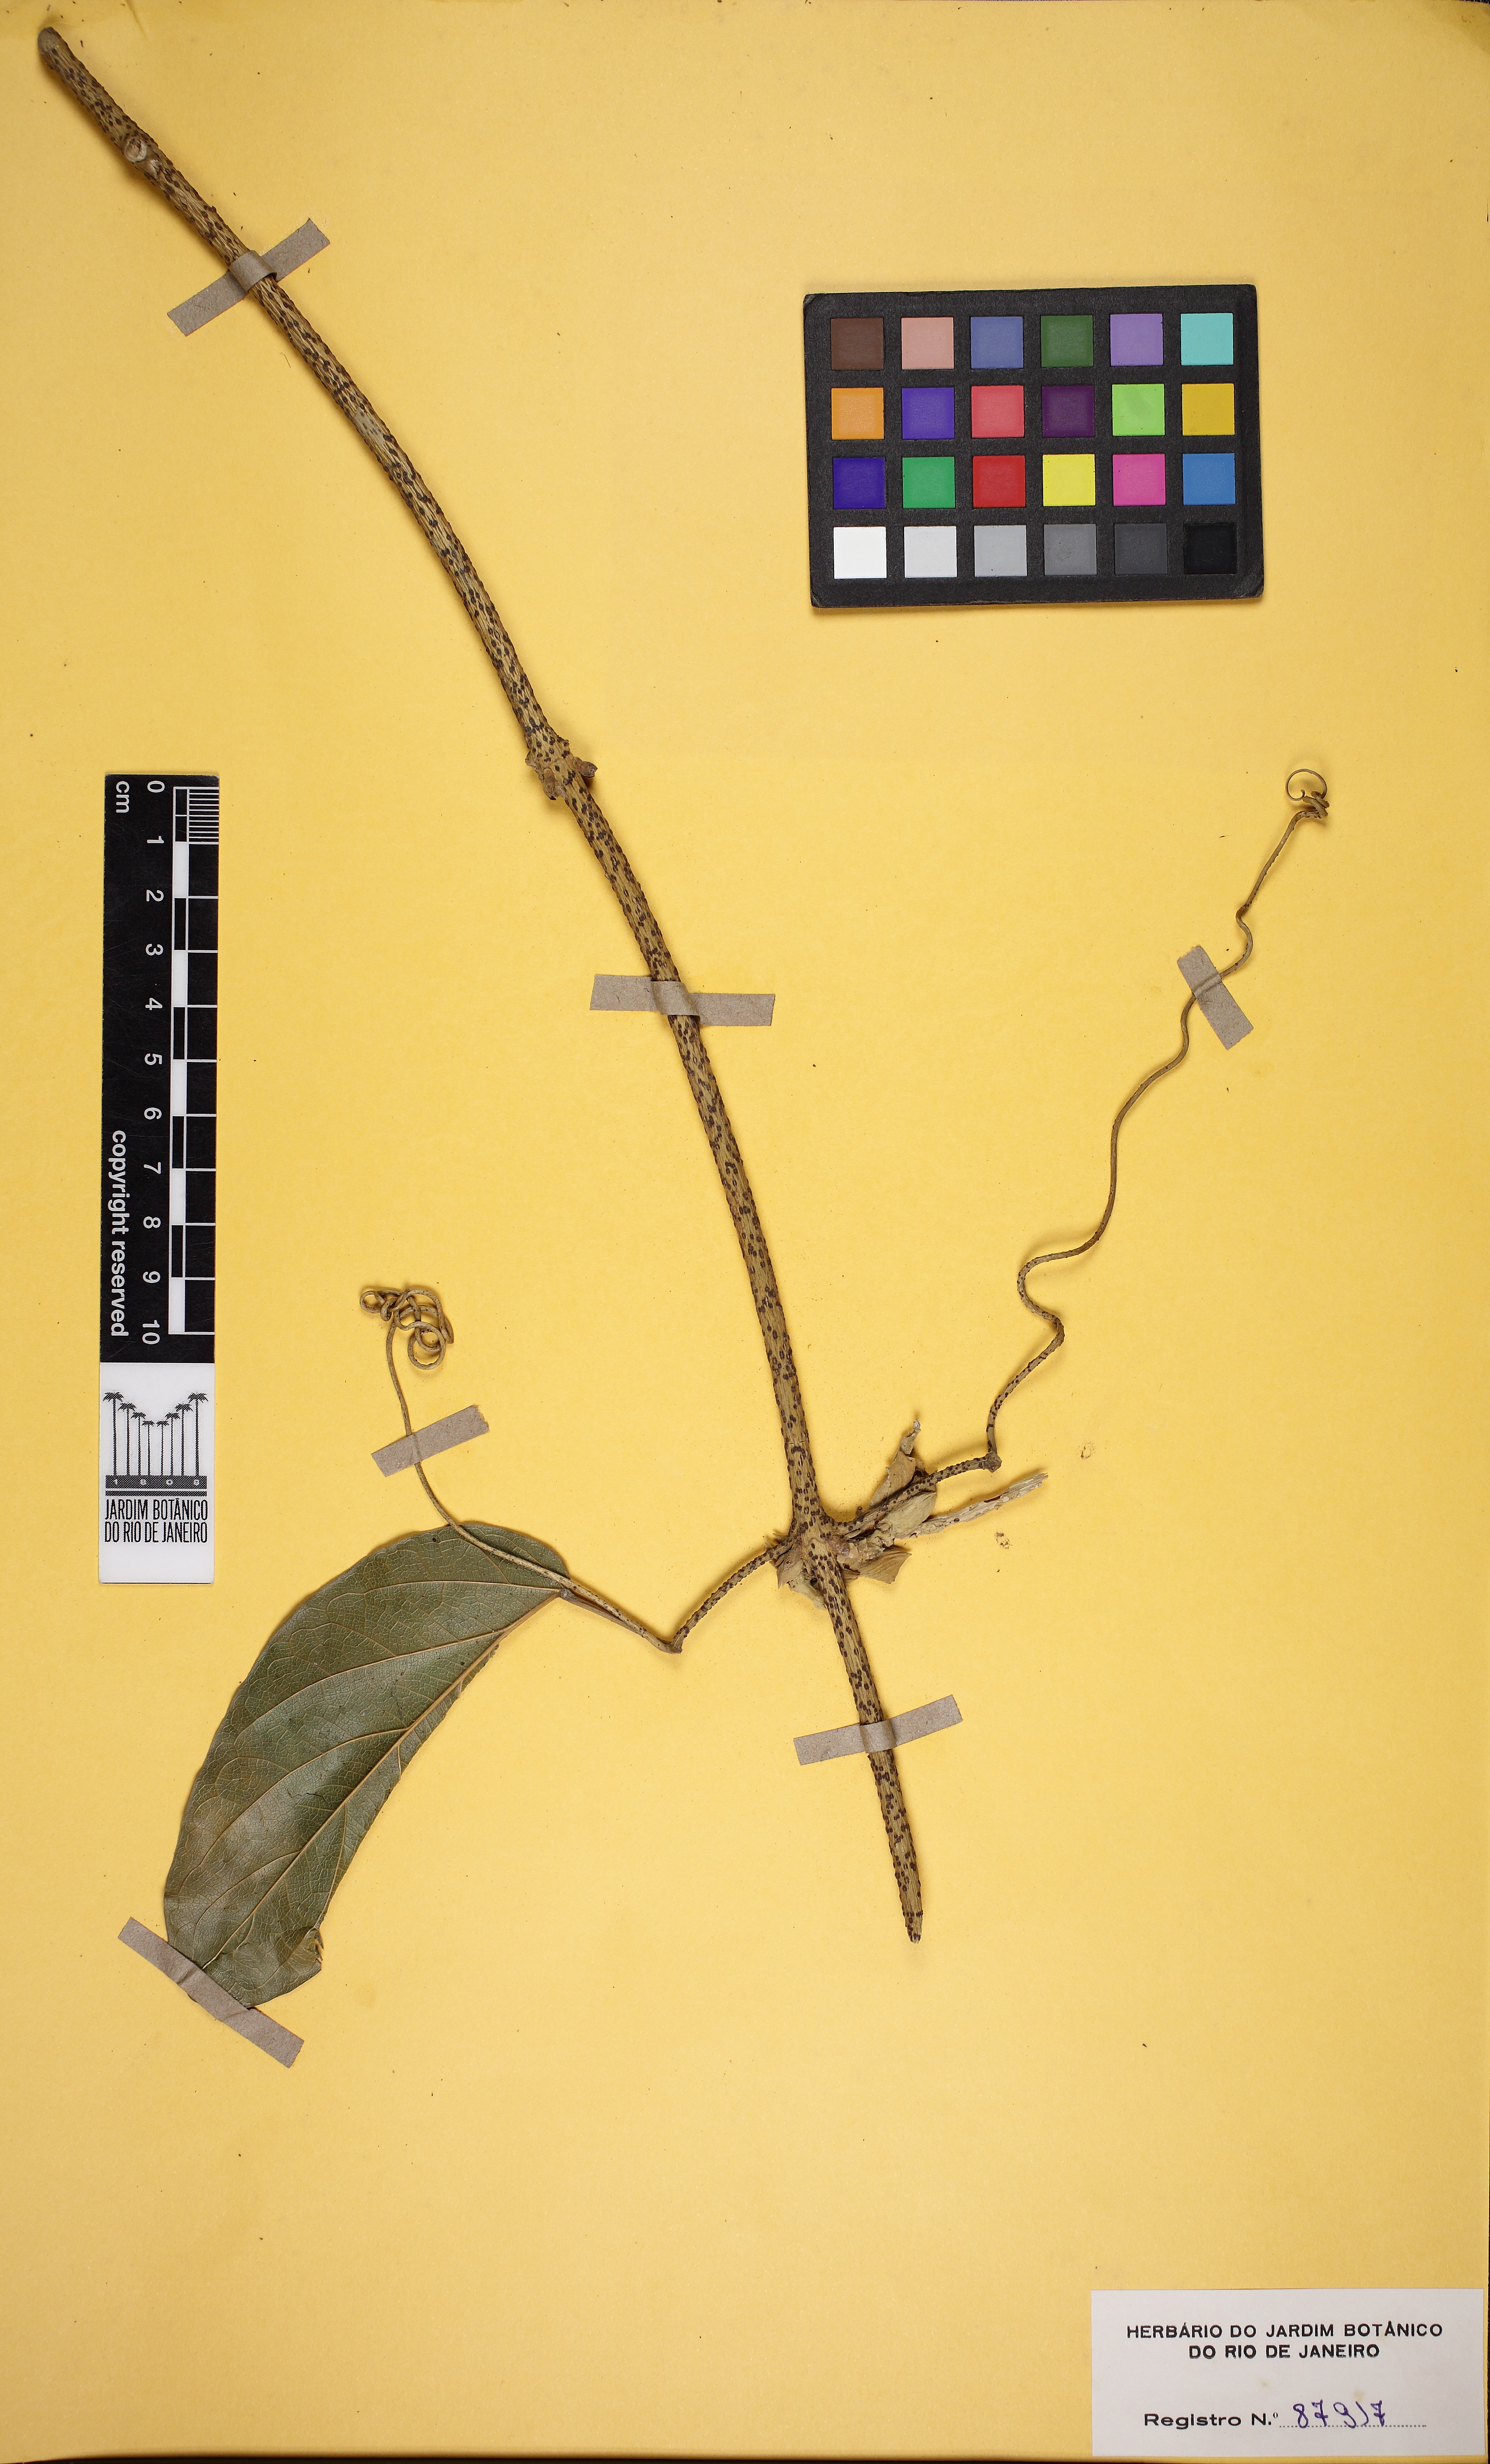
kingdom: Plantae
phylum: Tracheophyta
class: Magnoliopsida
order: Lamiales
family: Bignoniaceae
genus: Adenocalymma
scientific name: Adenocalymma bracteolatum
